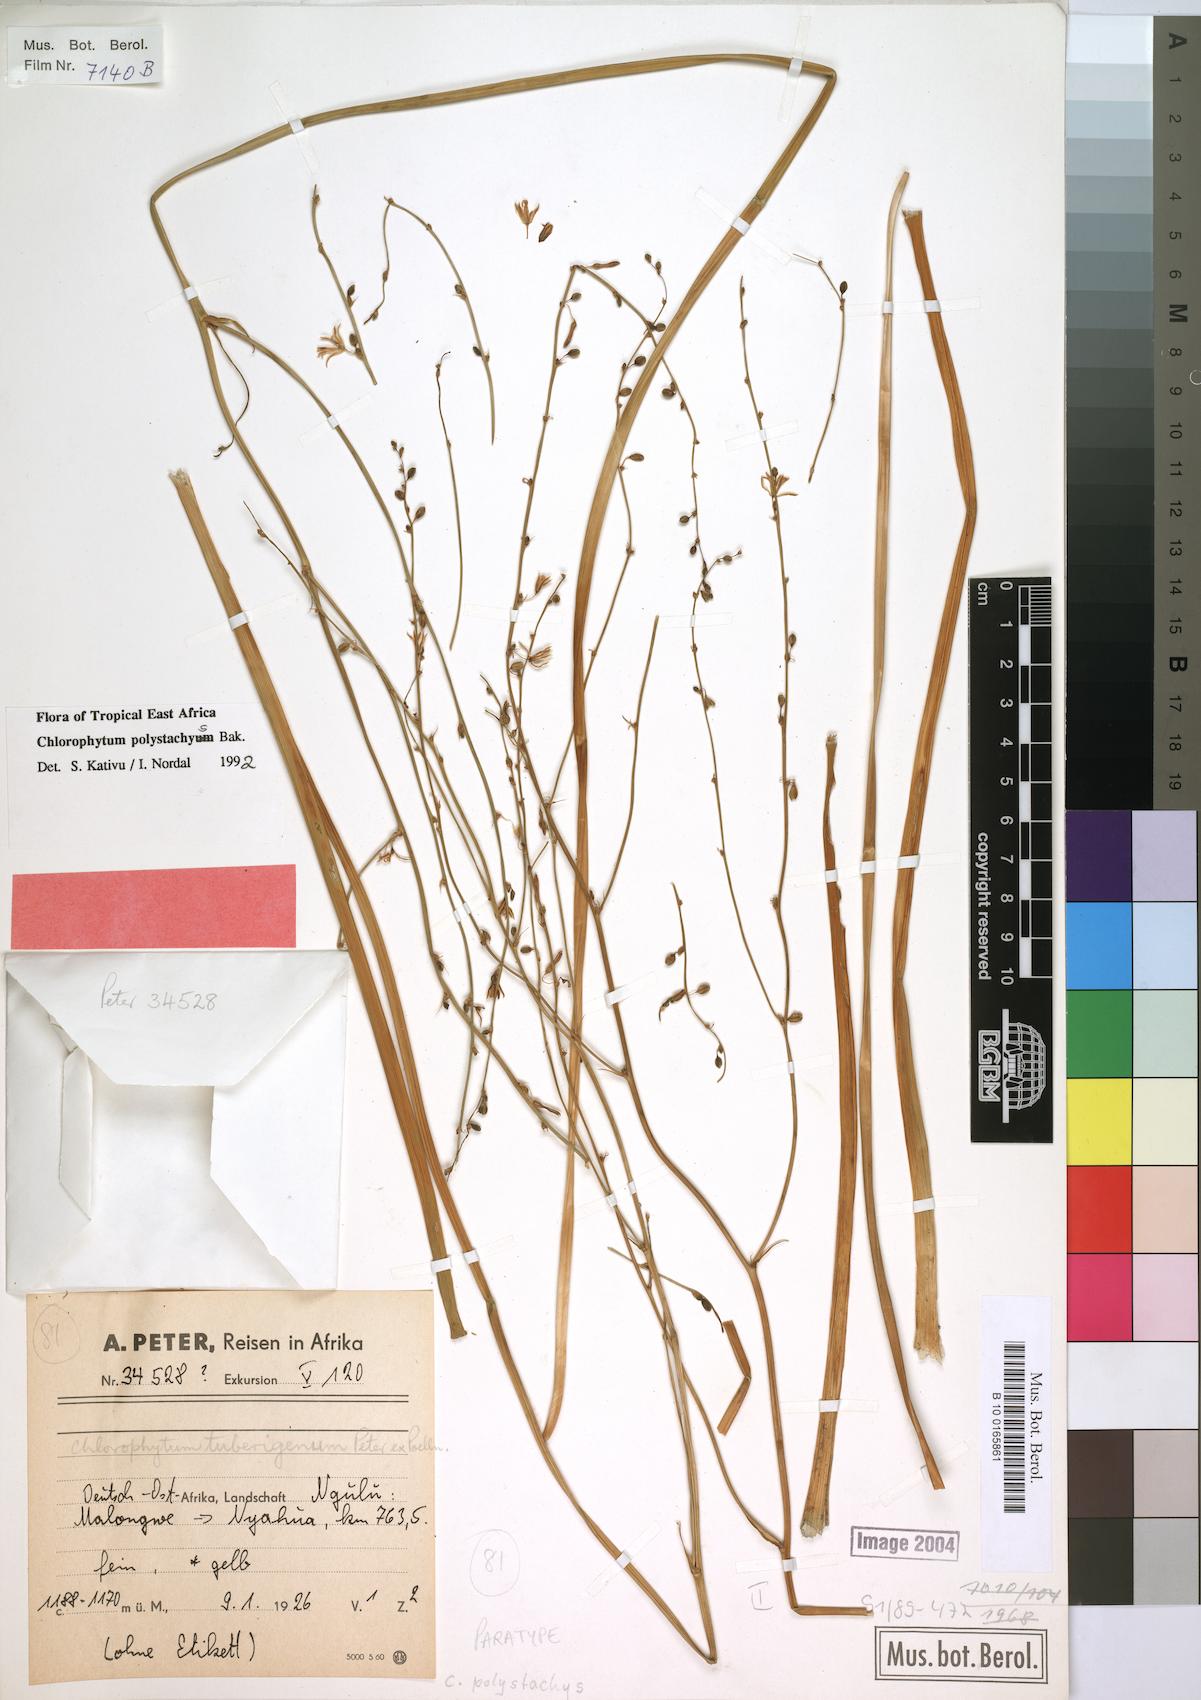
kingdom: Plantae
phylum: Tracheophyta
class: Liliopsida
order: Asparagales
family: Asparagaceae
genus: Chlorophytum
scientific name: Chlorophytum polystachys
